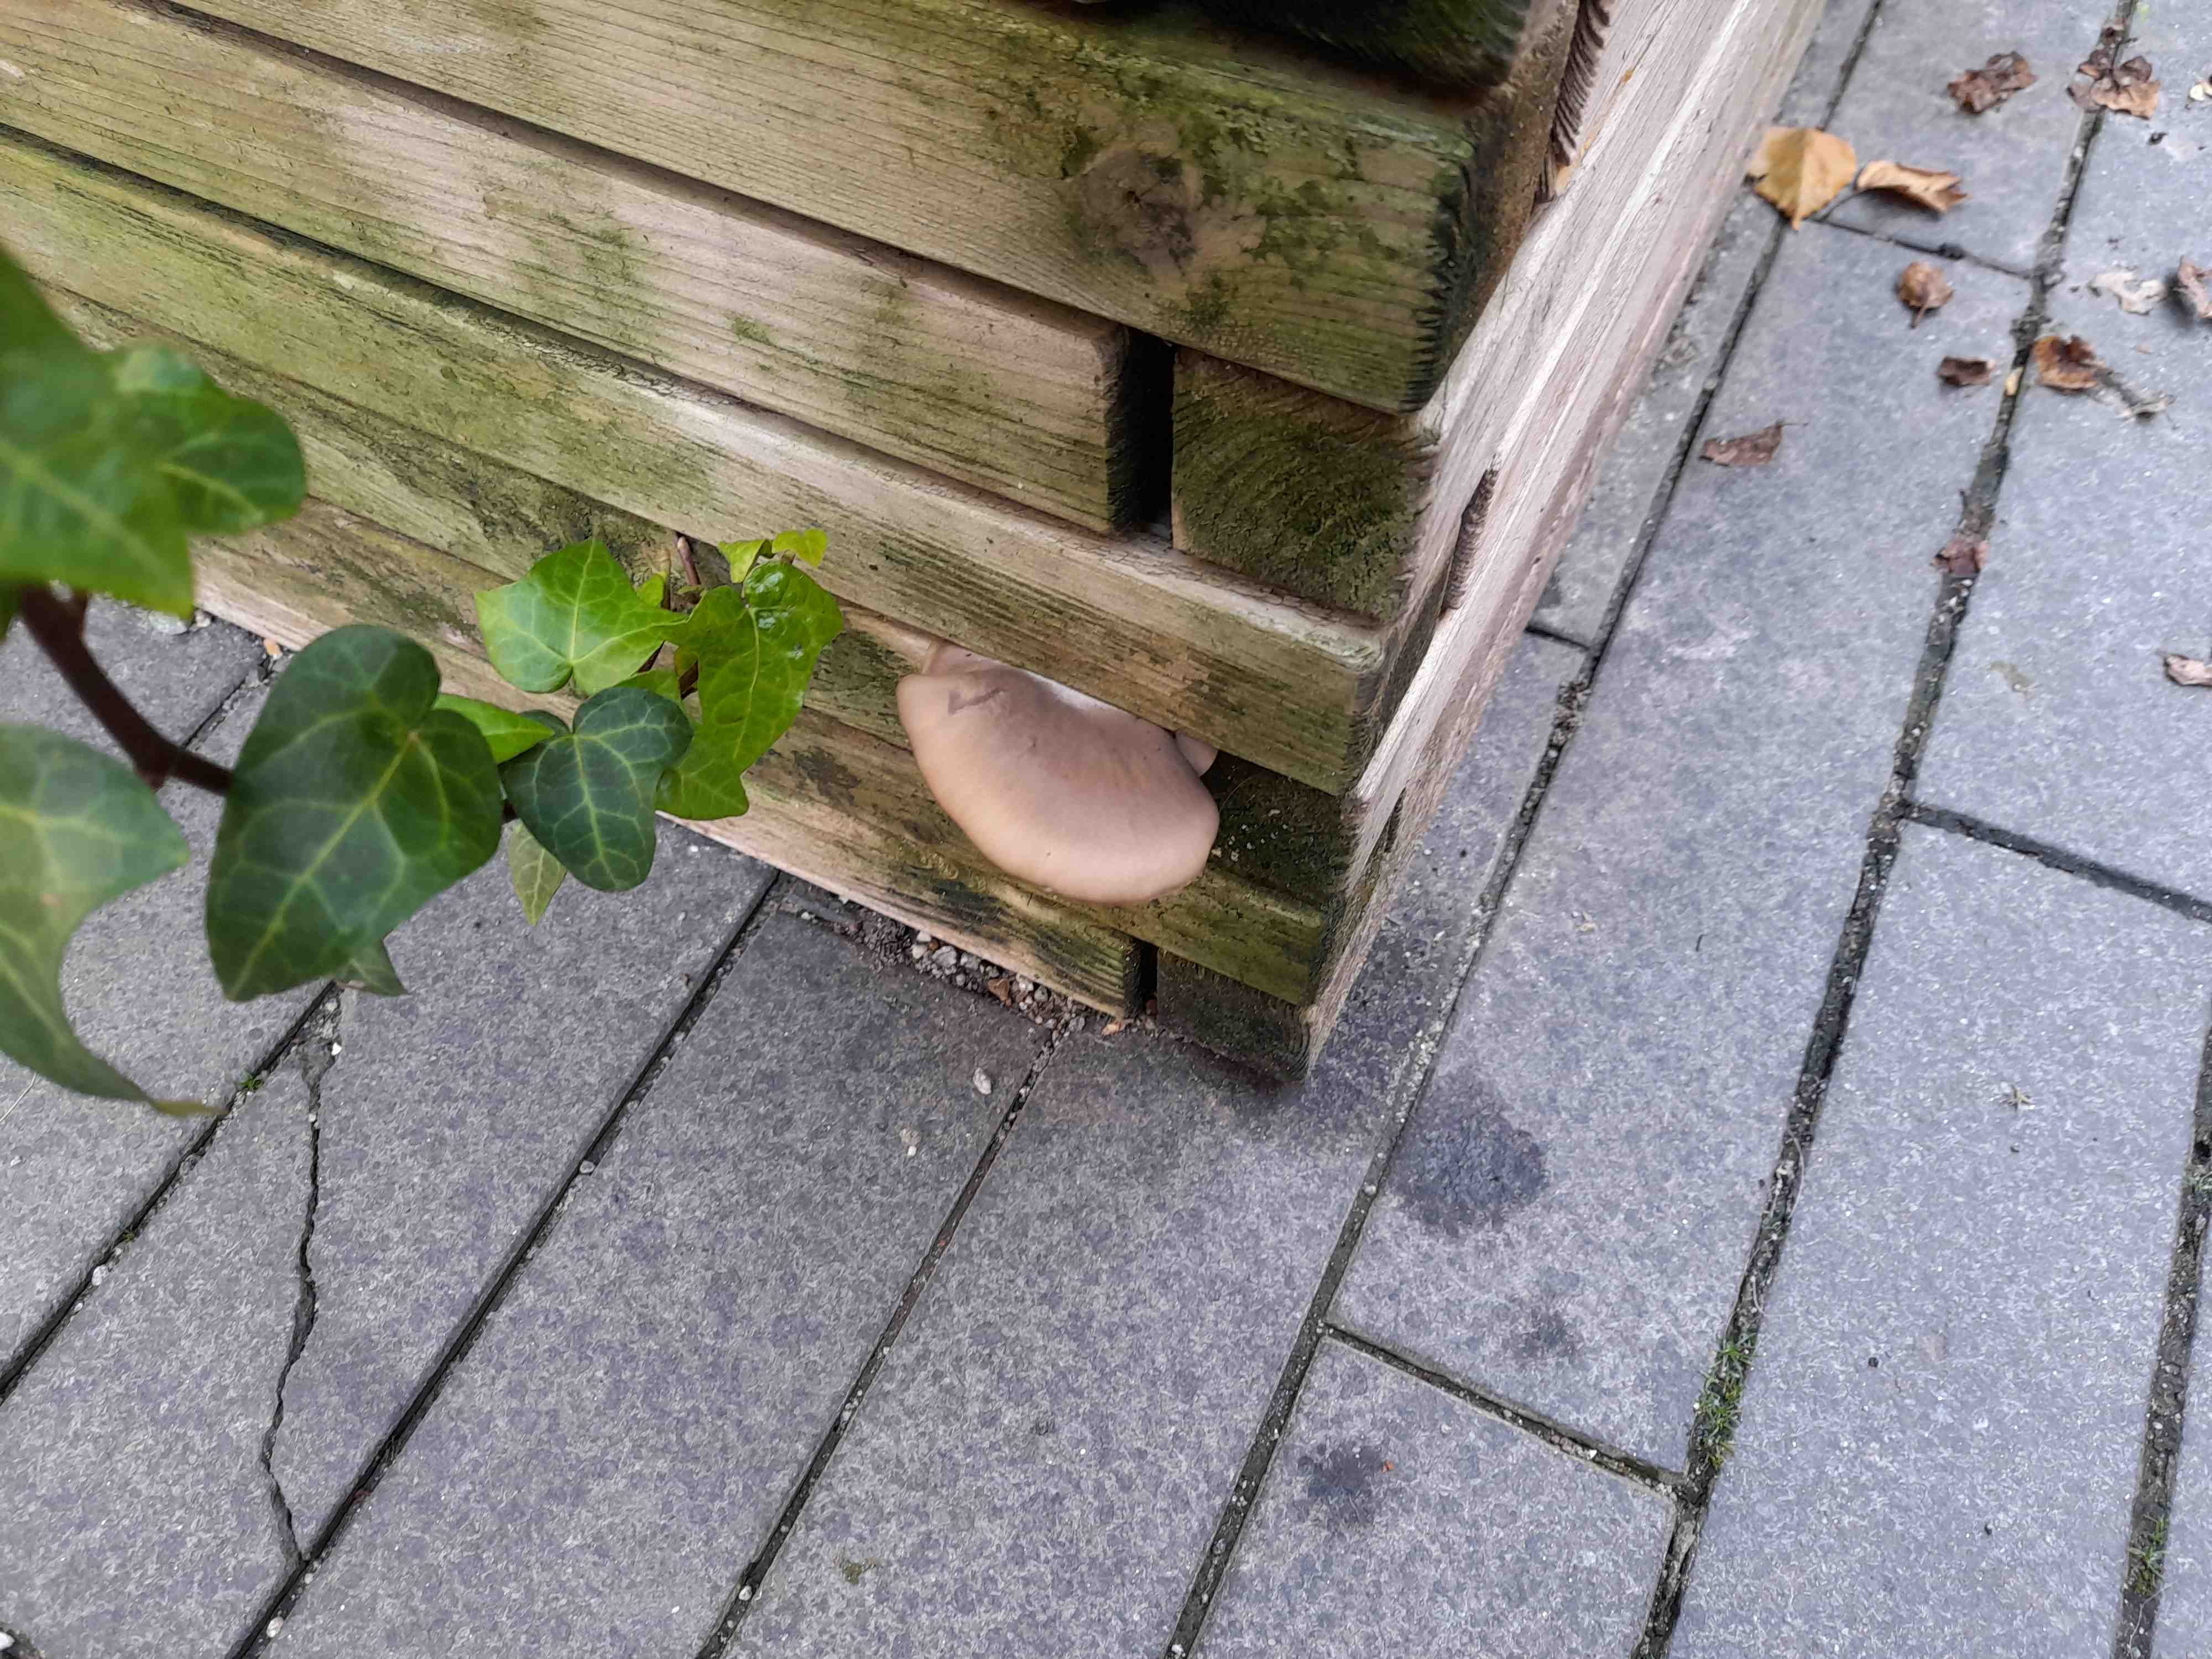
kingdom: Fungi
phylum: Basidiomycota
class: Agaricomycetes
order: Agaricales
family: Pleurotaceae
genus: Pleurotus
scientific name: Pleurotus ostreatus
